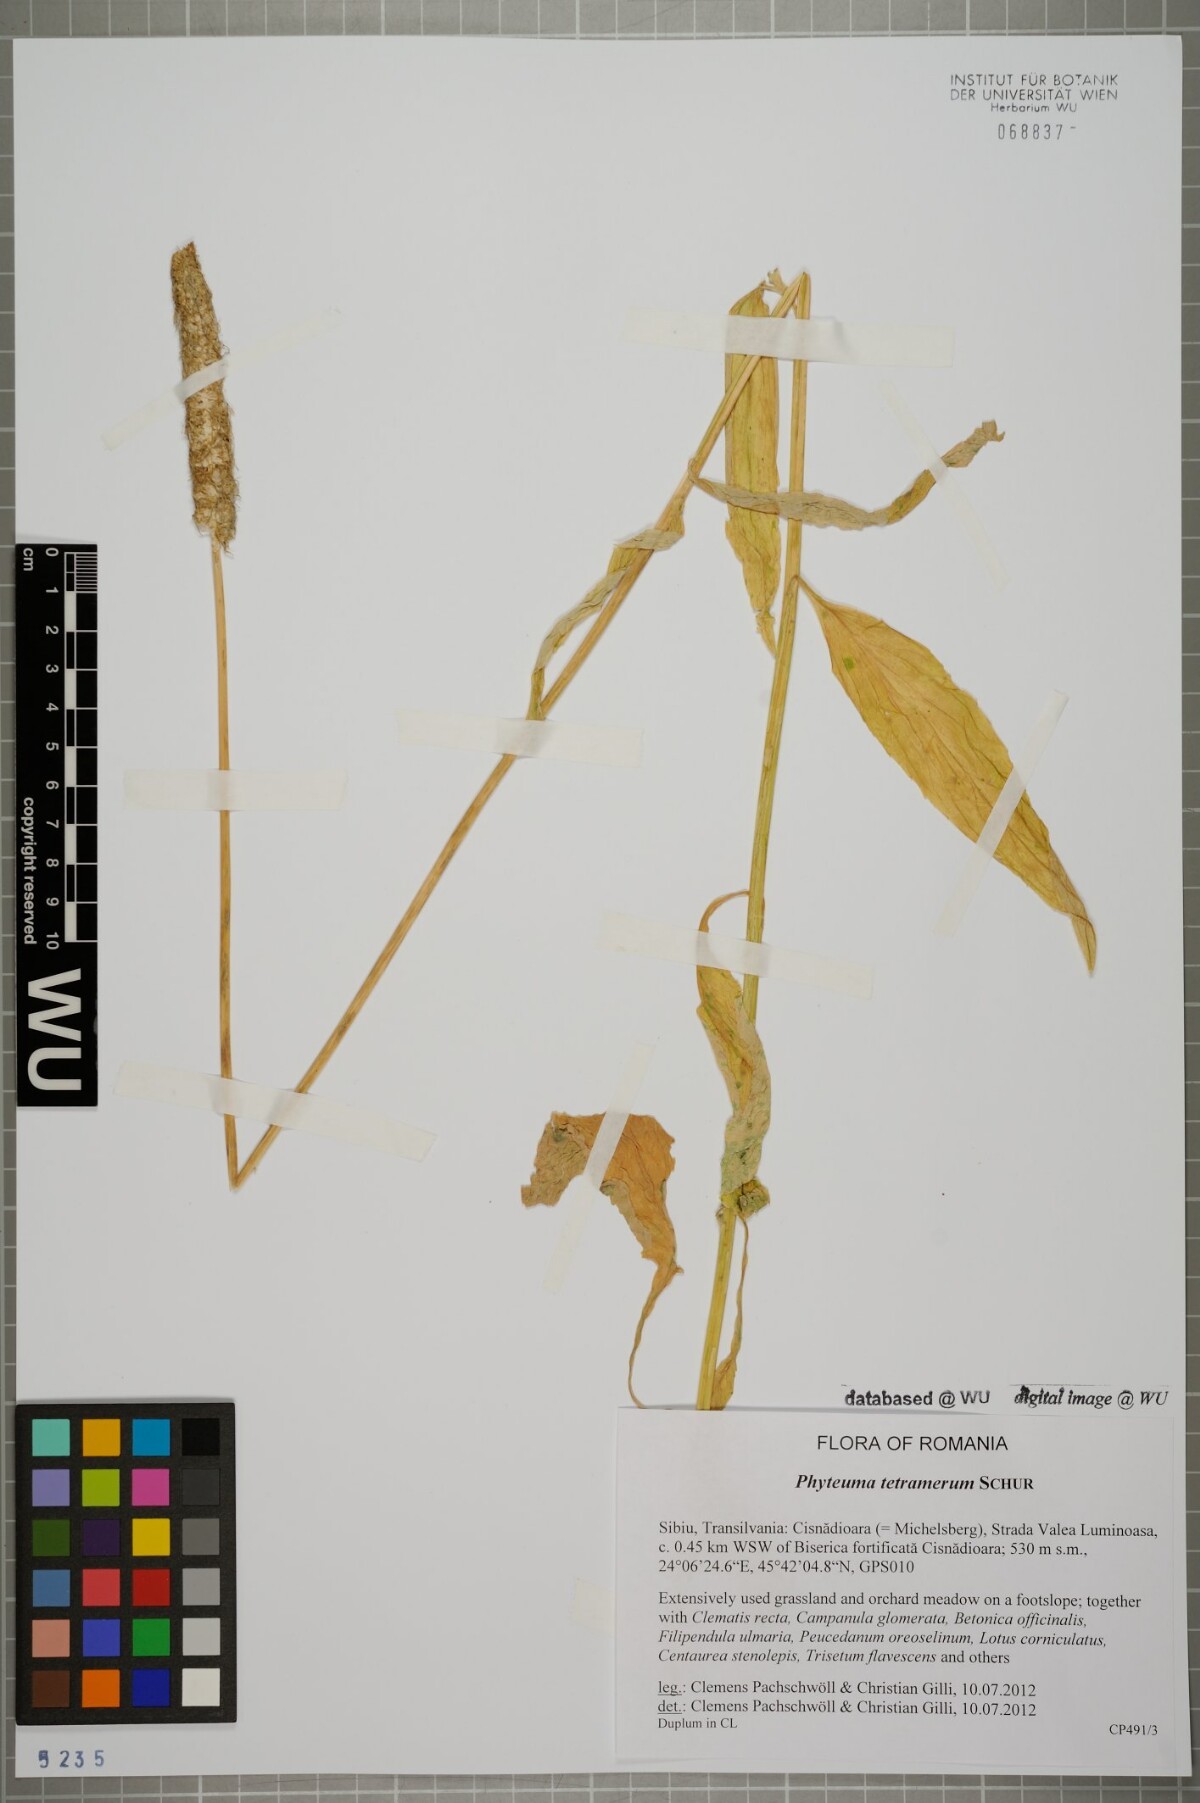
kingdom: Plantae
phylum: Tracheophyta
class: Magnoliopsida
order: Asterales
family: Campanulaceae
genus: Phyteuma
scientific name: Phyteuma tetramerum
